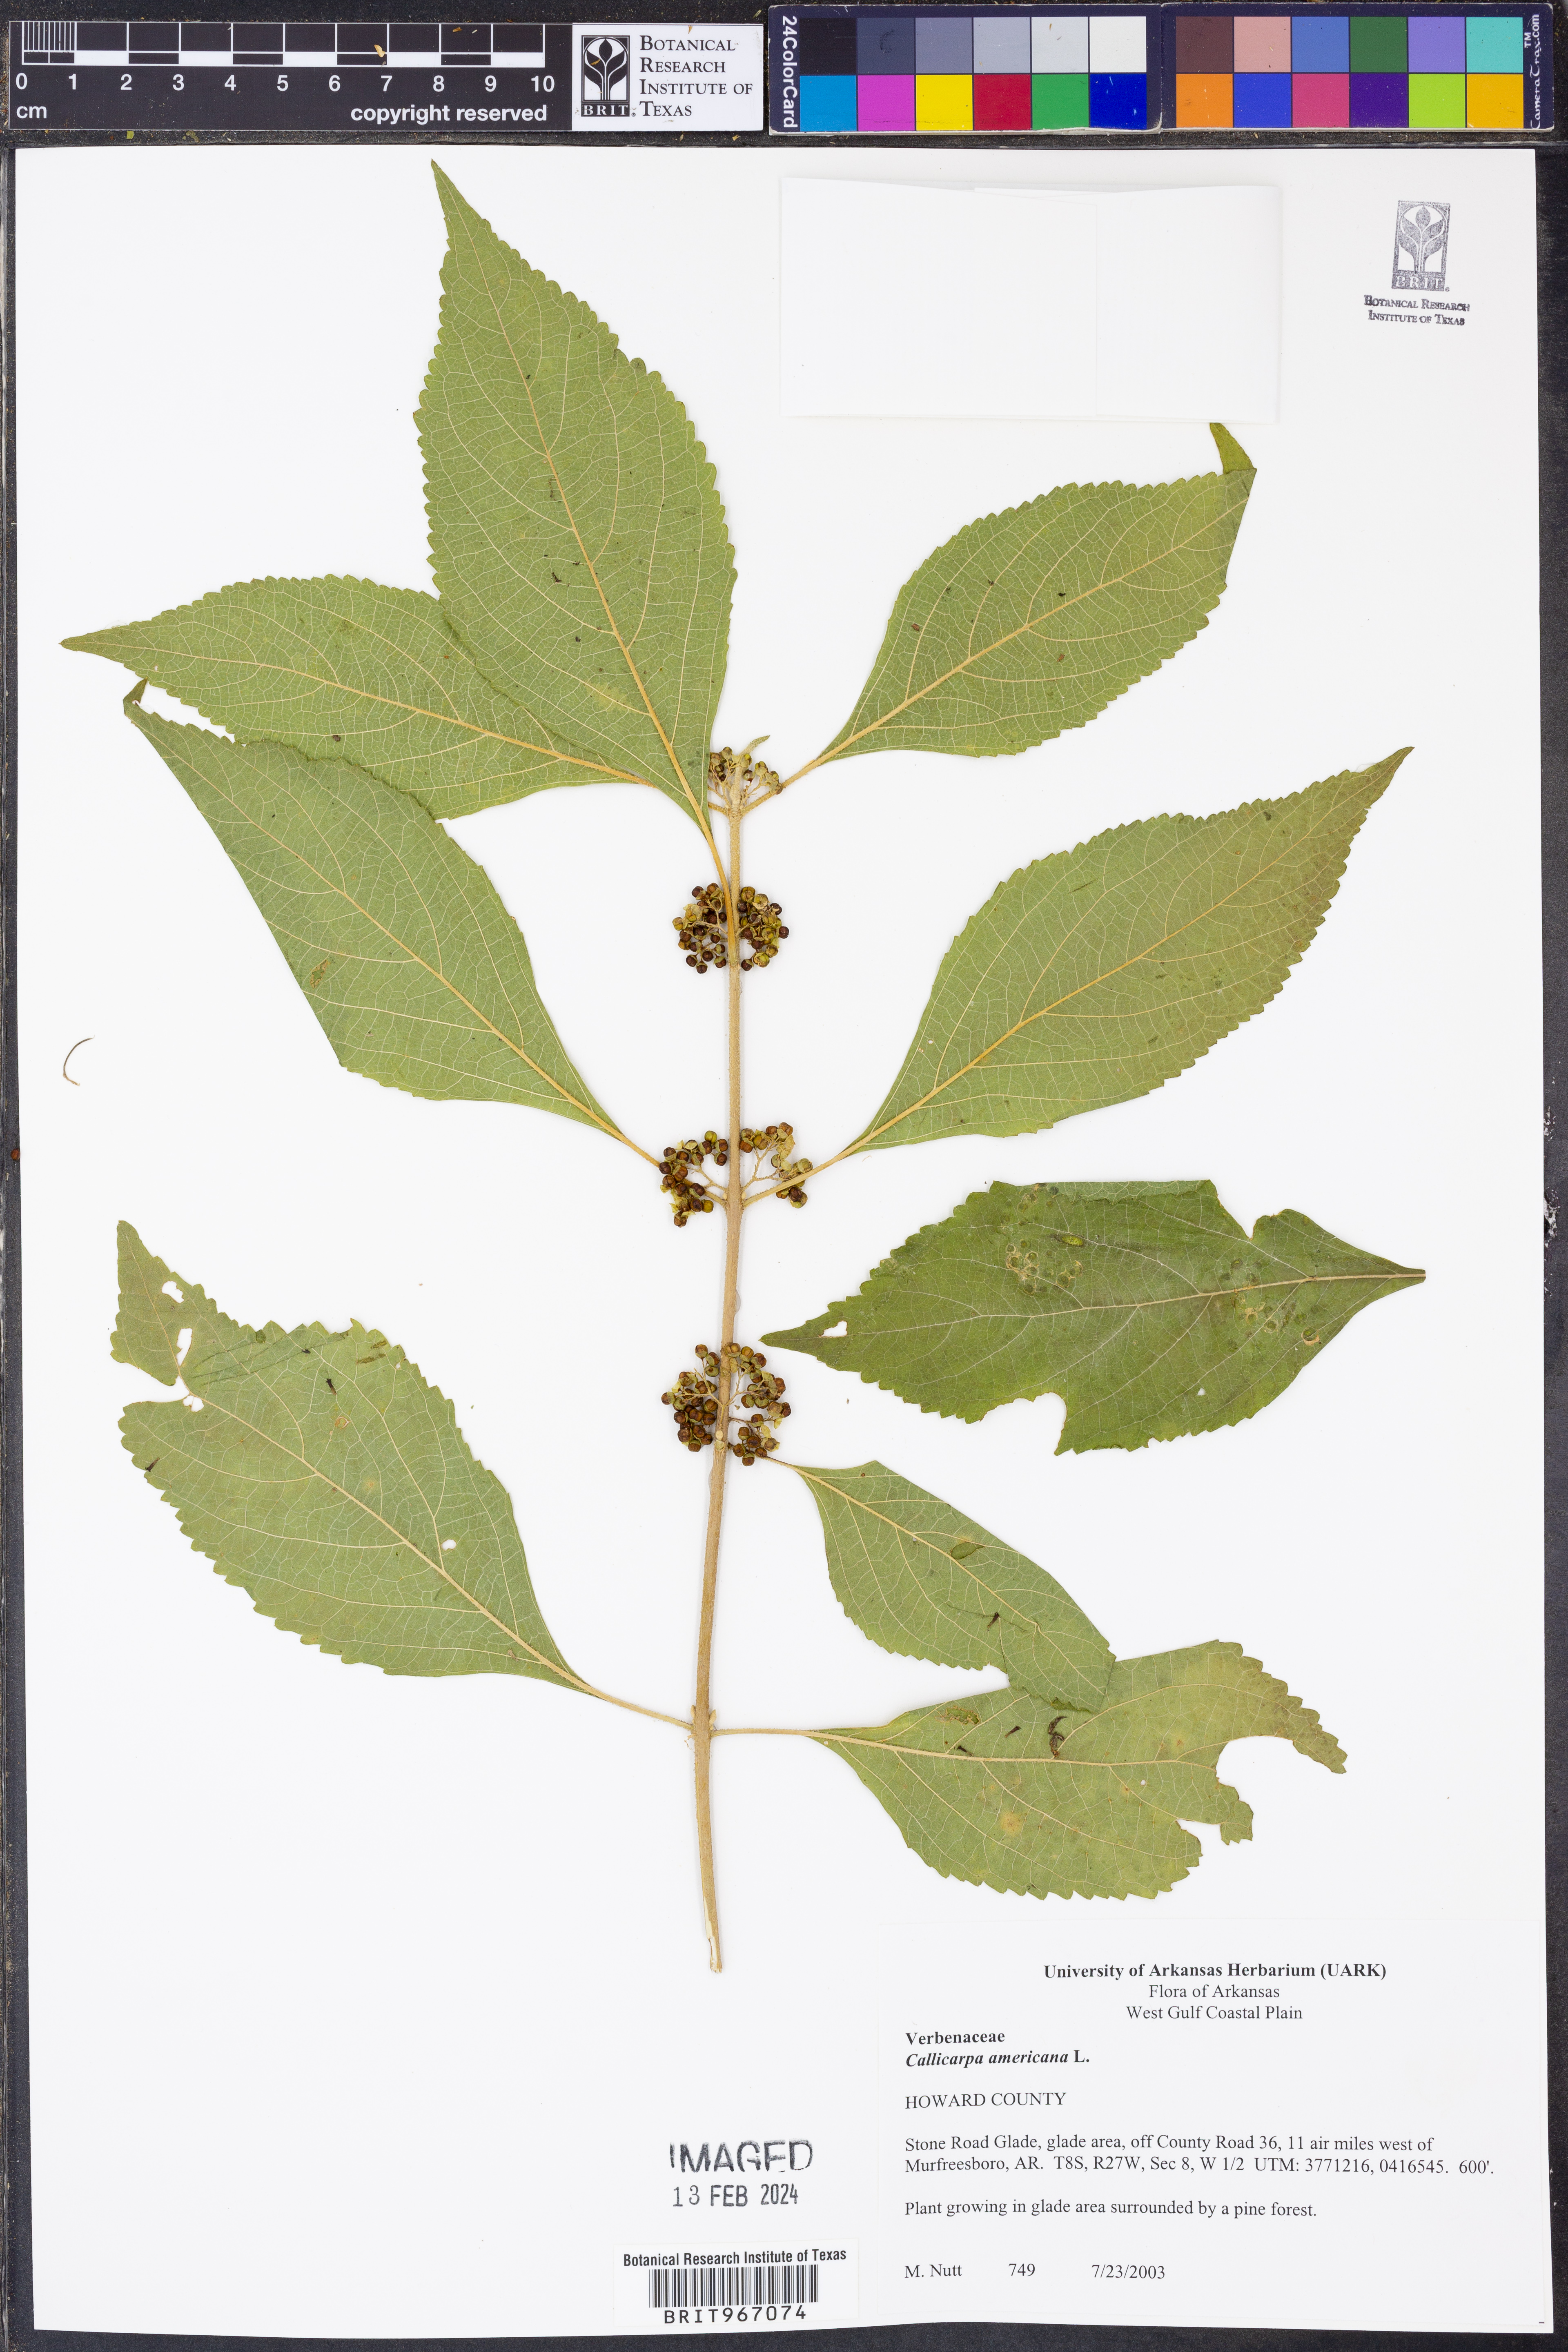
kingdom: Plantae
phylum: Tracheophyta
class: Magnoliopsida
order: Lamiales
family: Lamiaceae
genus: Callicarpa
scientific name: Callicarpa americana
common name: American beautyberry
